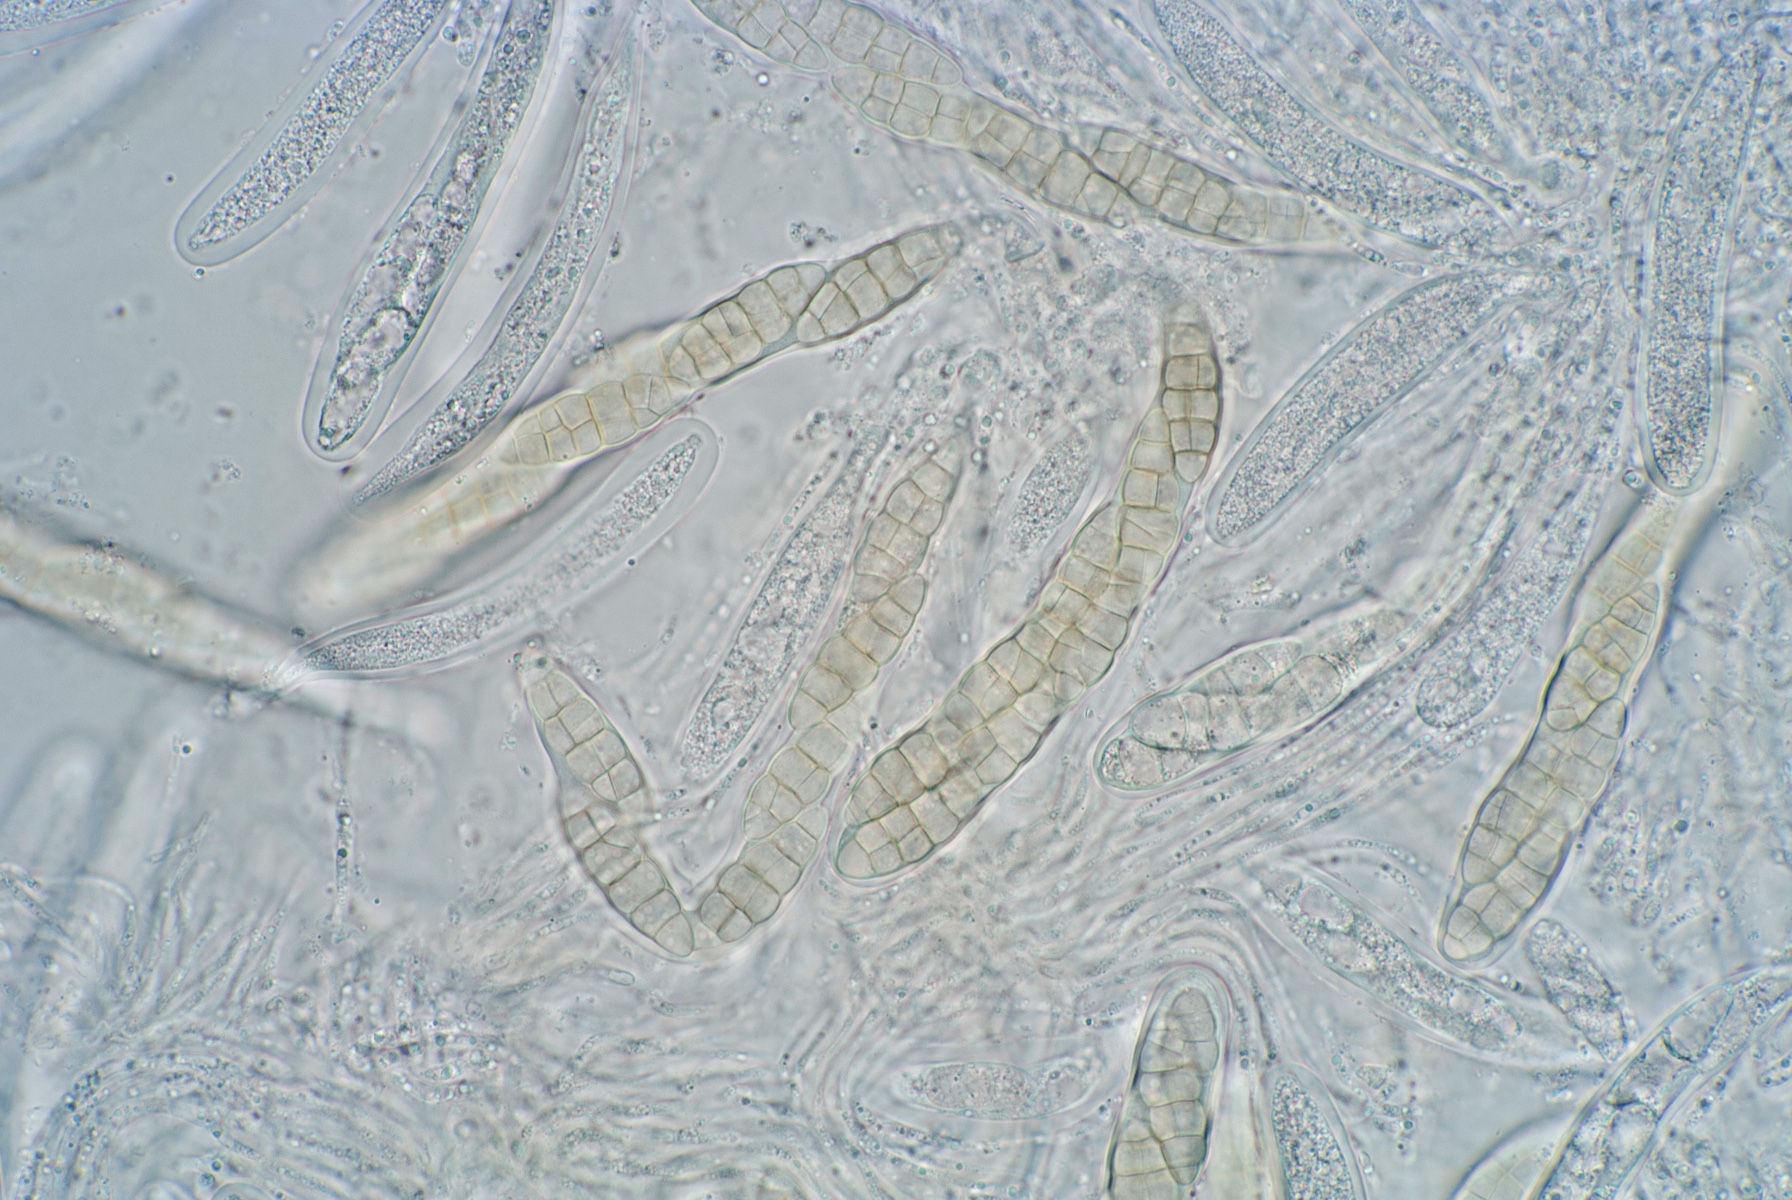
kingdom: Fungi
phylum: Ascomycota
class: Dothideomycetes
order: Pleosporales
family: Phaeosphaeriaceae
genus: Septoriella
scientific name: Septoriella vagans
